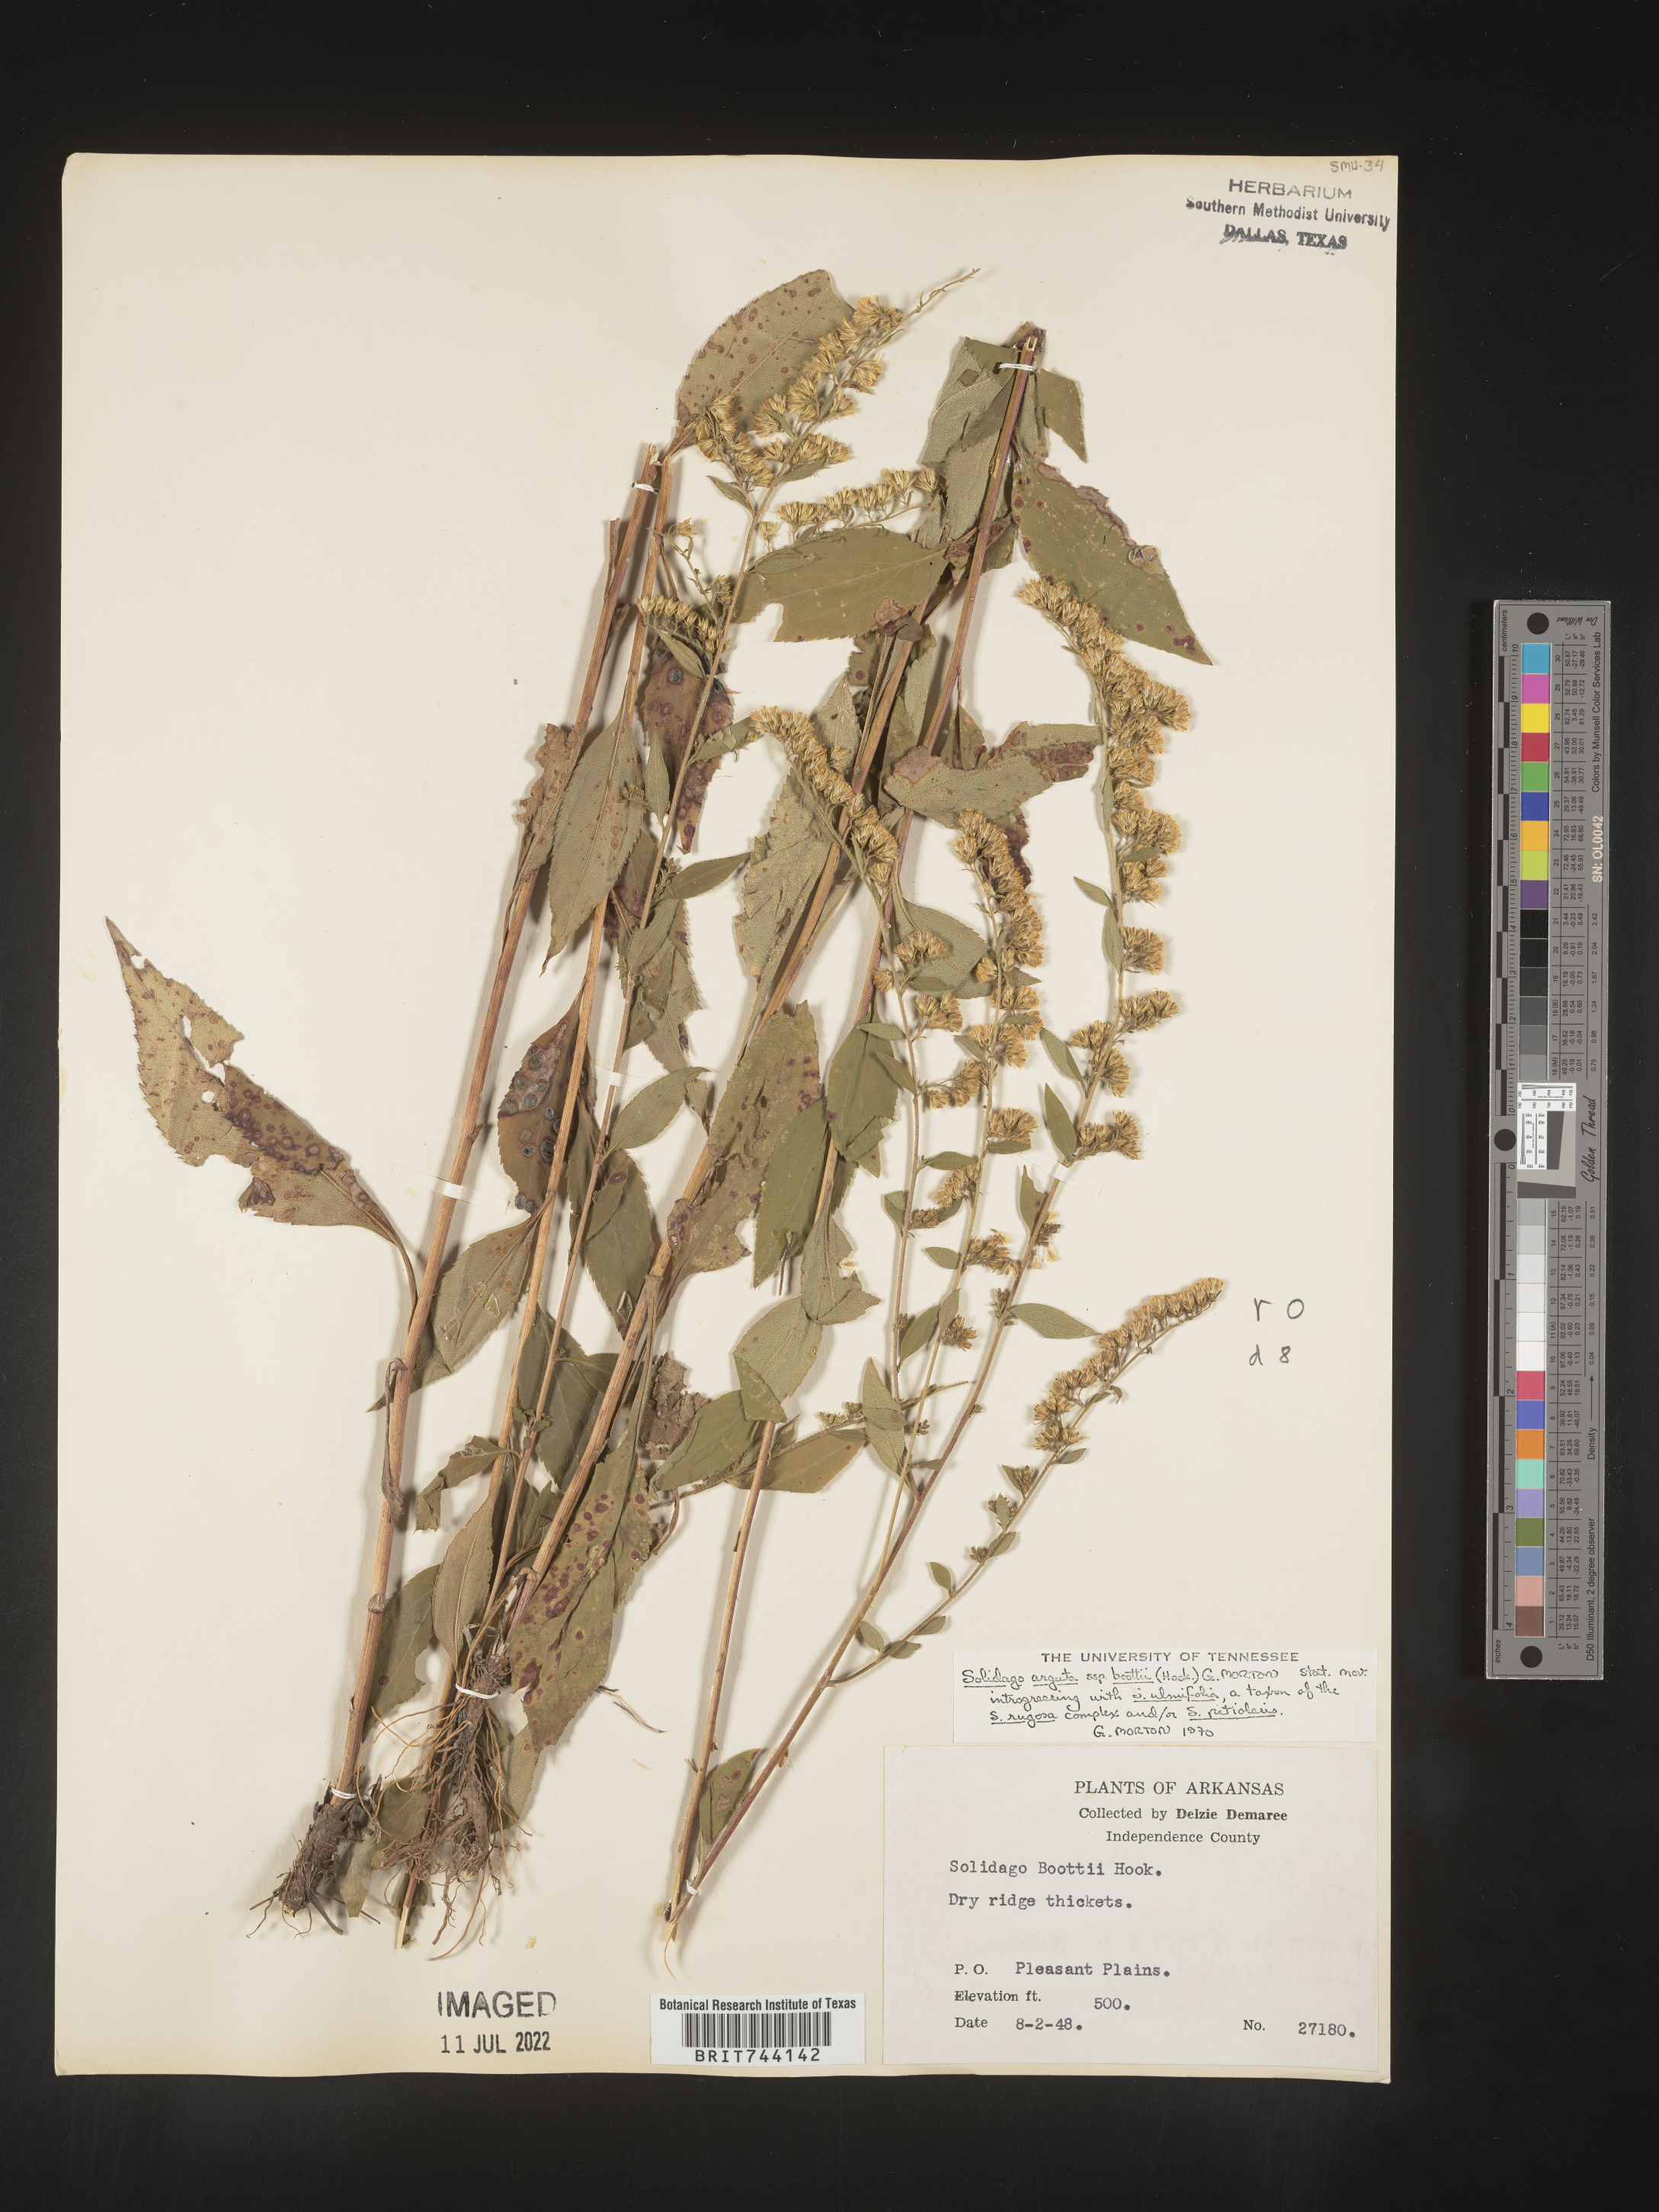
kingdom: Plantae
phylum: Tracheophyta
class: Magnoliopsida
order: Asterales
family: Asteraceae
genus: Solidago
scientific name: Solidago arguta
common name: Atlantic goldenrod
